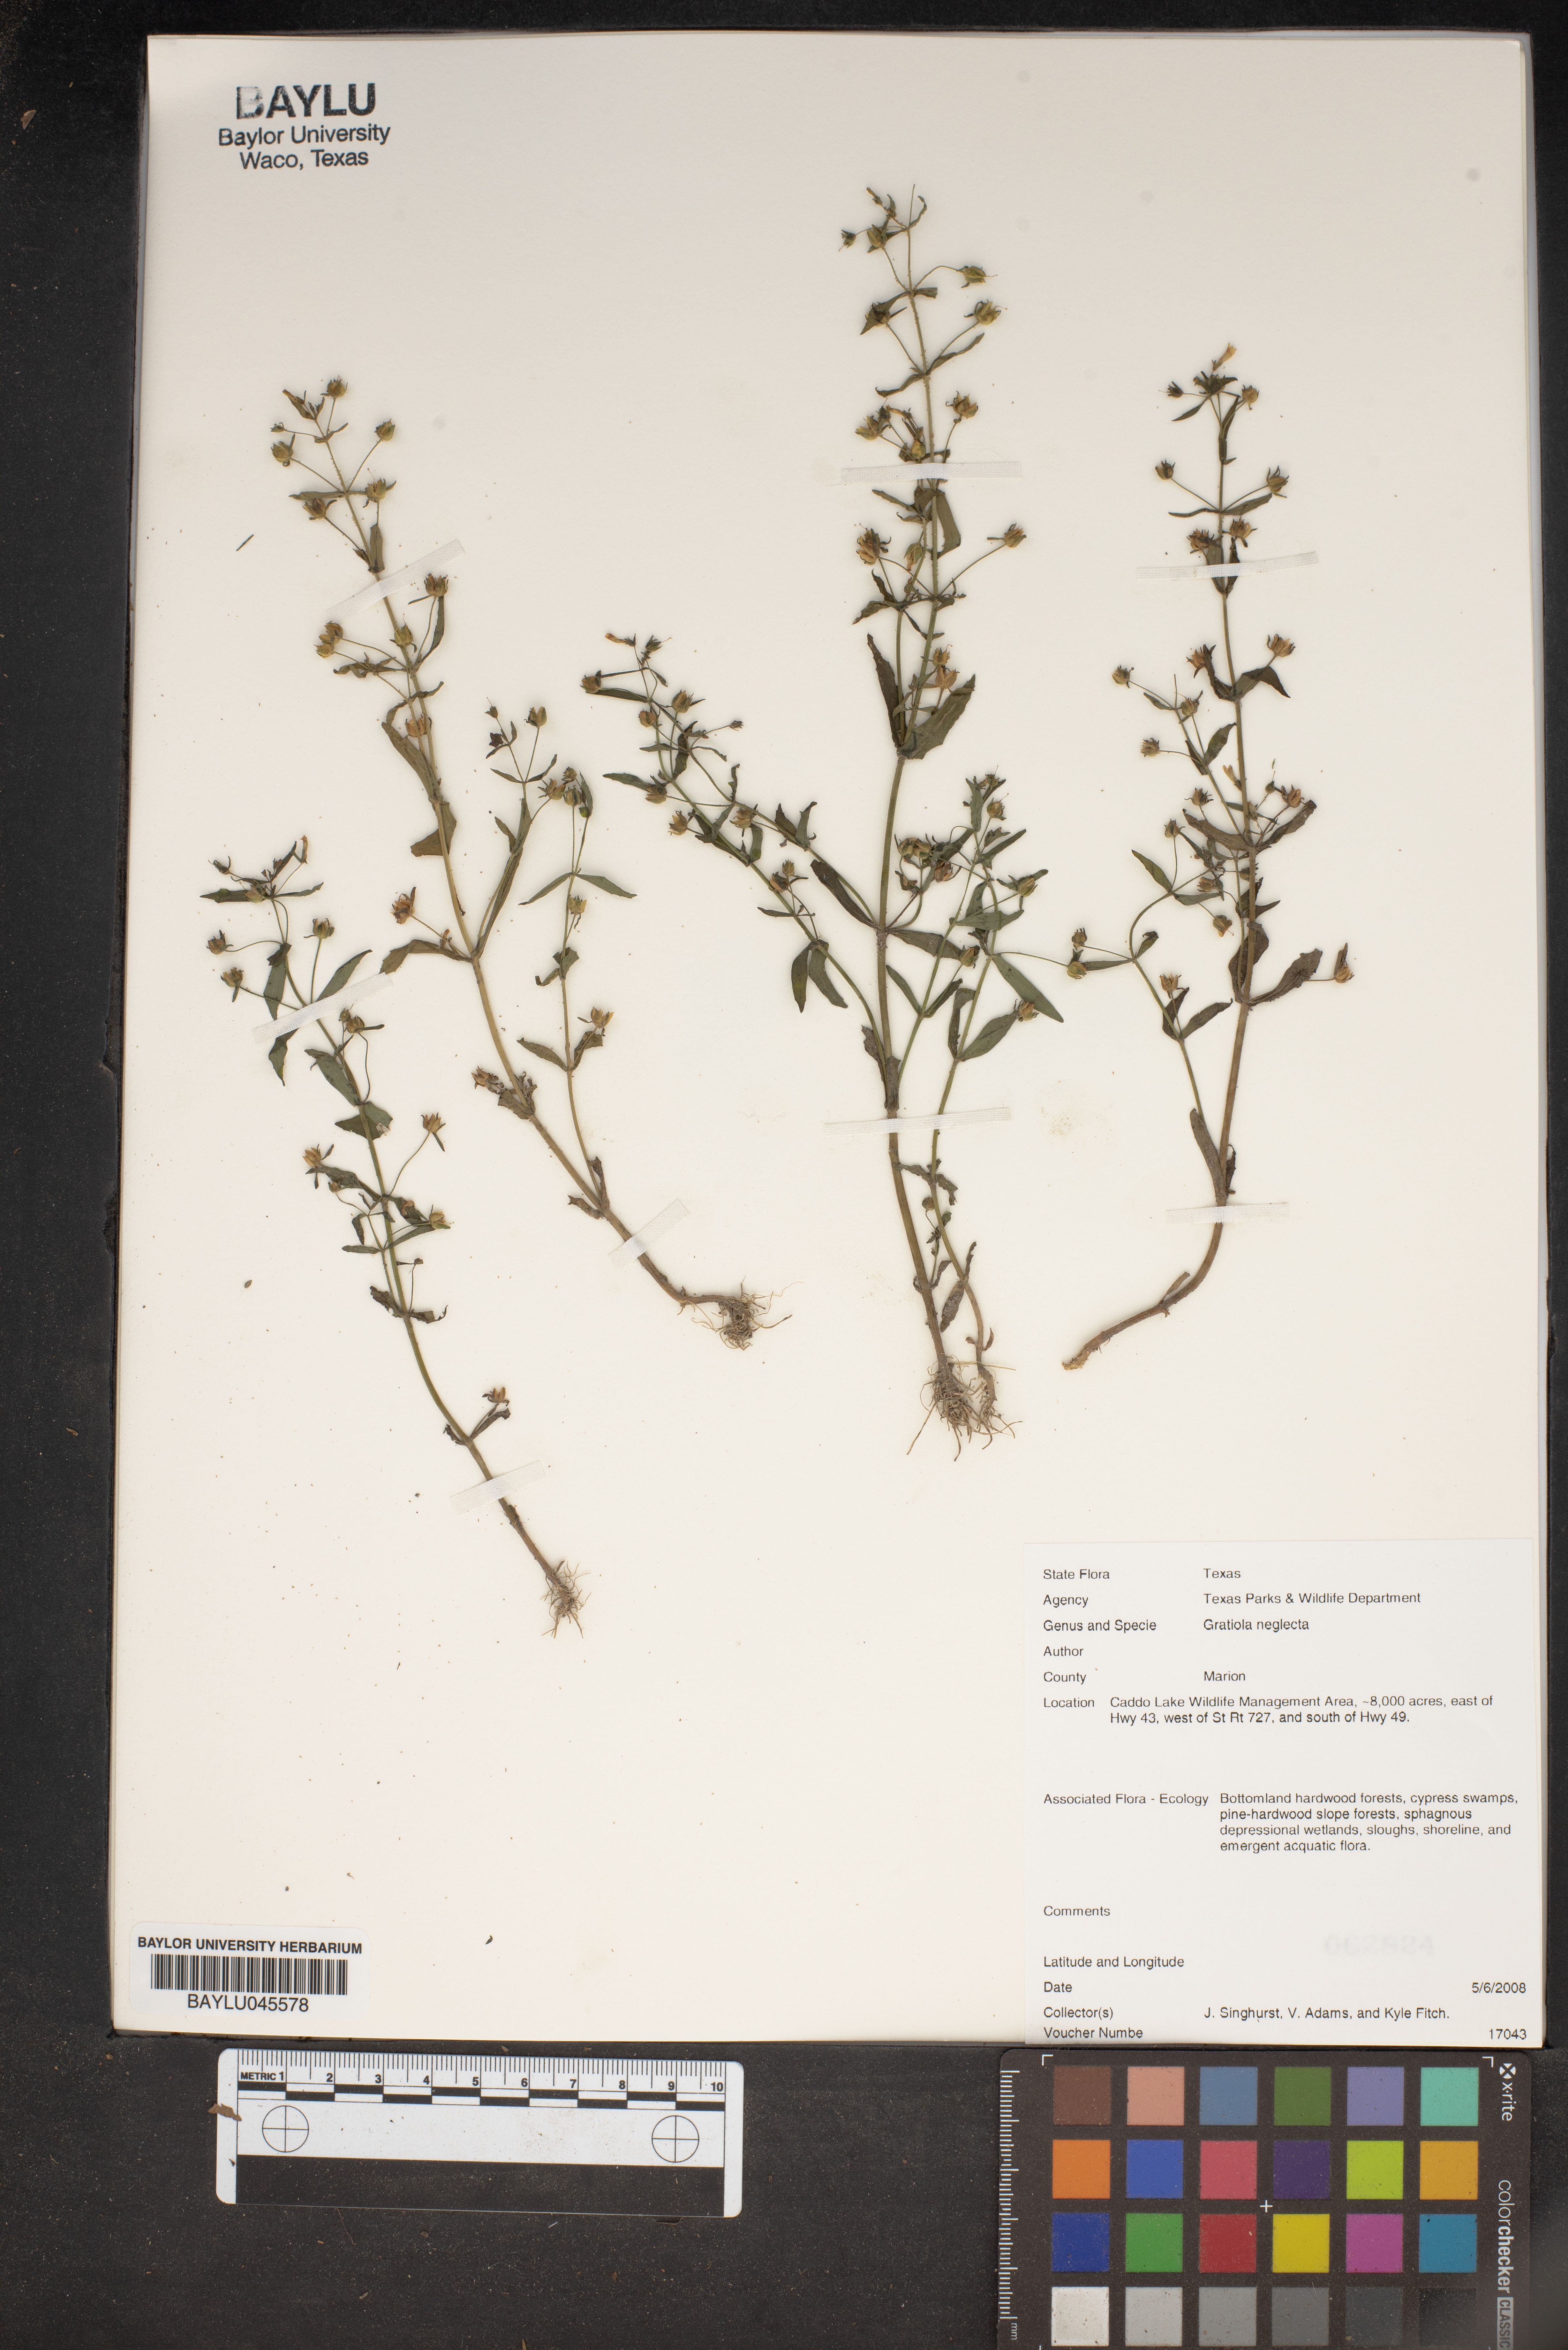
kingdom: Plantae
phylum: Tracheophyta
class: Magnoliopsida
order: Lamiales
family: Plantaginaceae
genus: Gratiola
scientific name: Gratiola neglecta
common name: American hedge-hyssop
